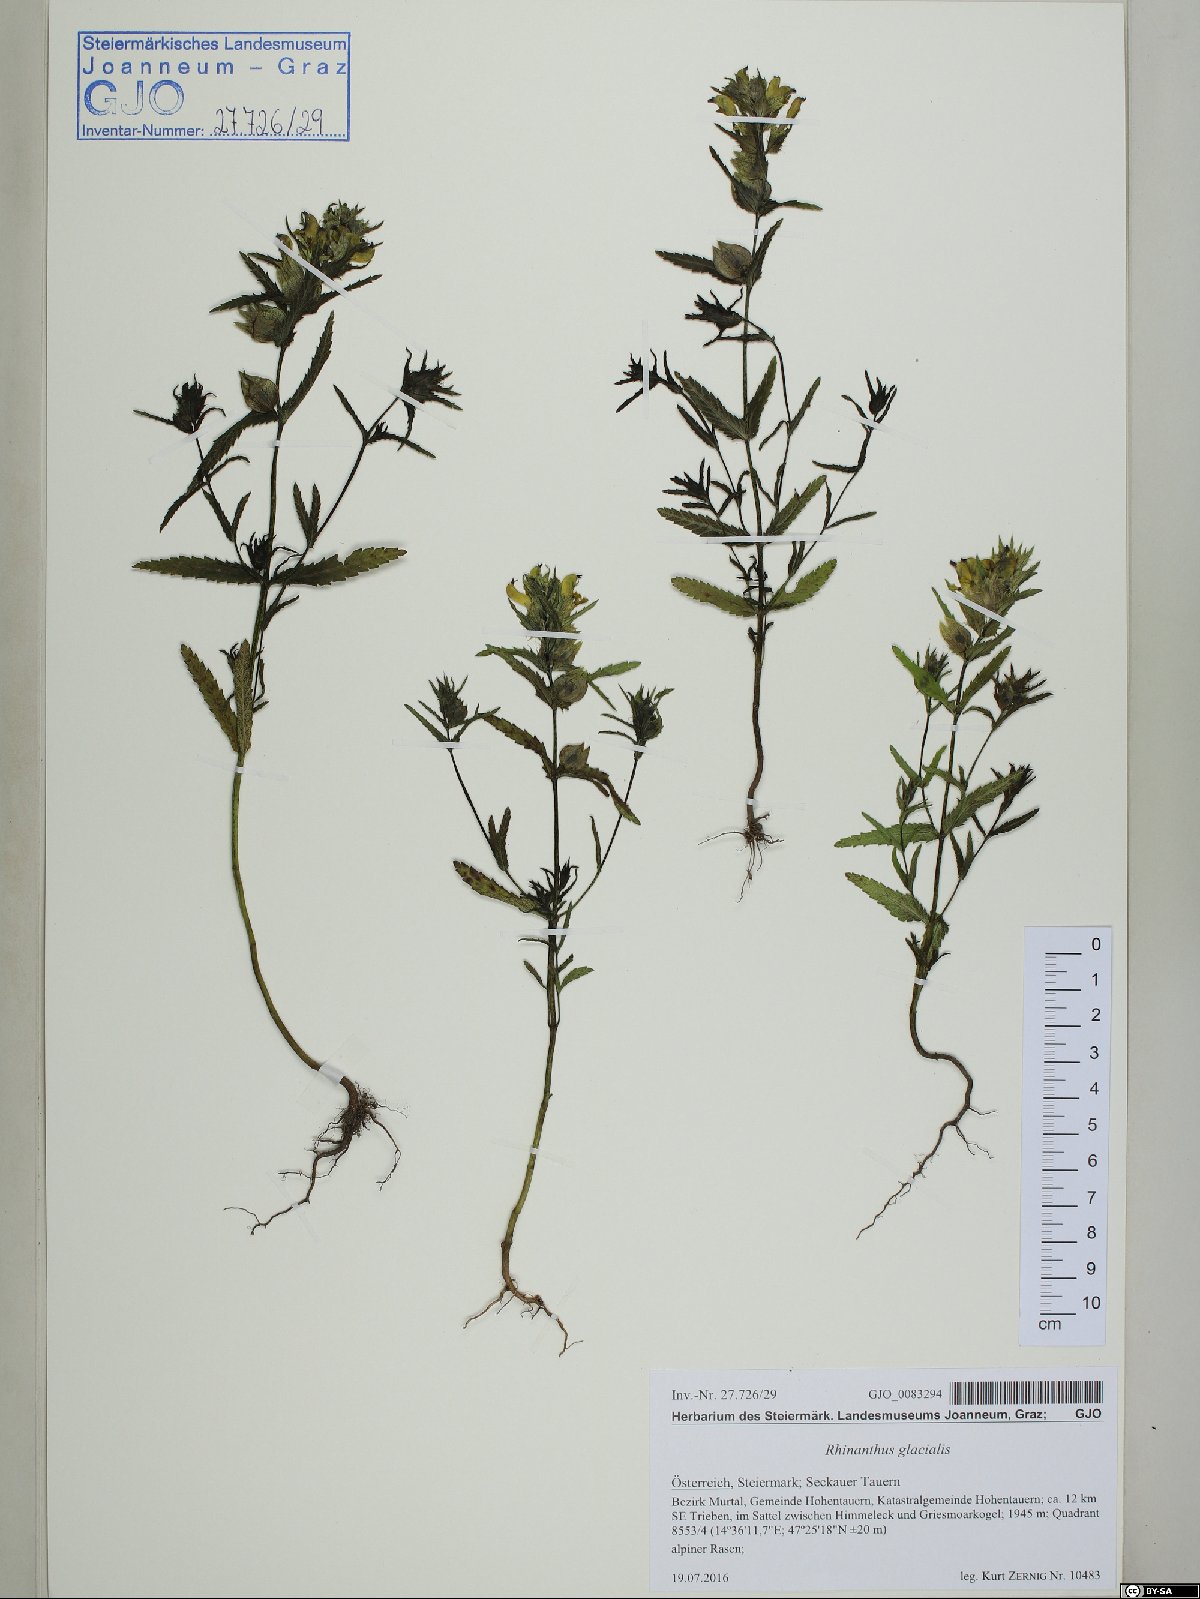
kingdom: Plantae
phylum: Tracheophyta
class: Magnoliopsida
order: Lamiales
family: Orobanchaceae
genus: Rhinanthus
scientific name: Rhinanthus glacialis
